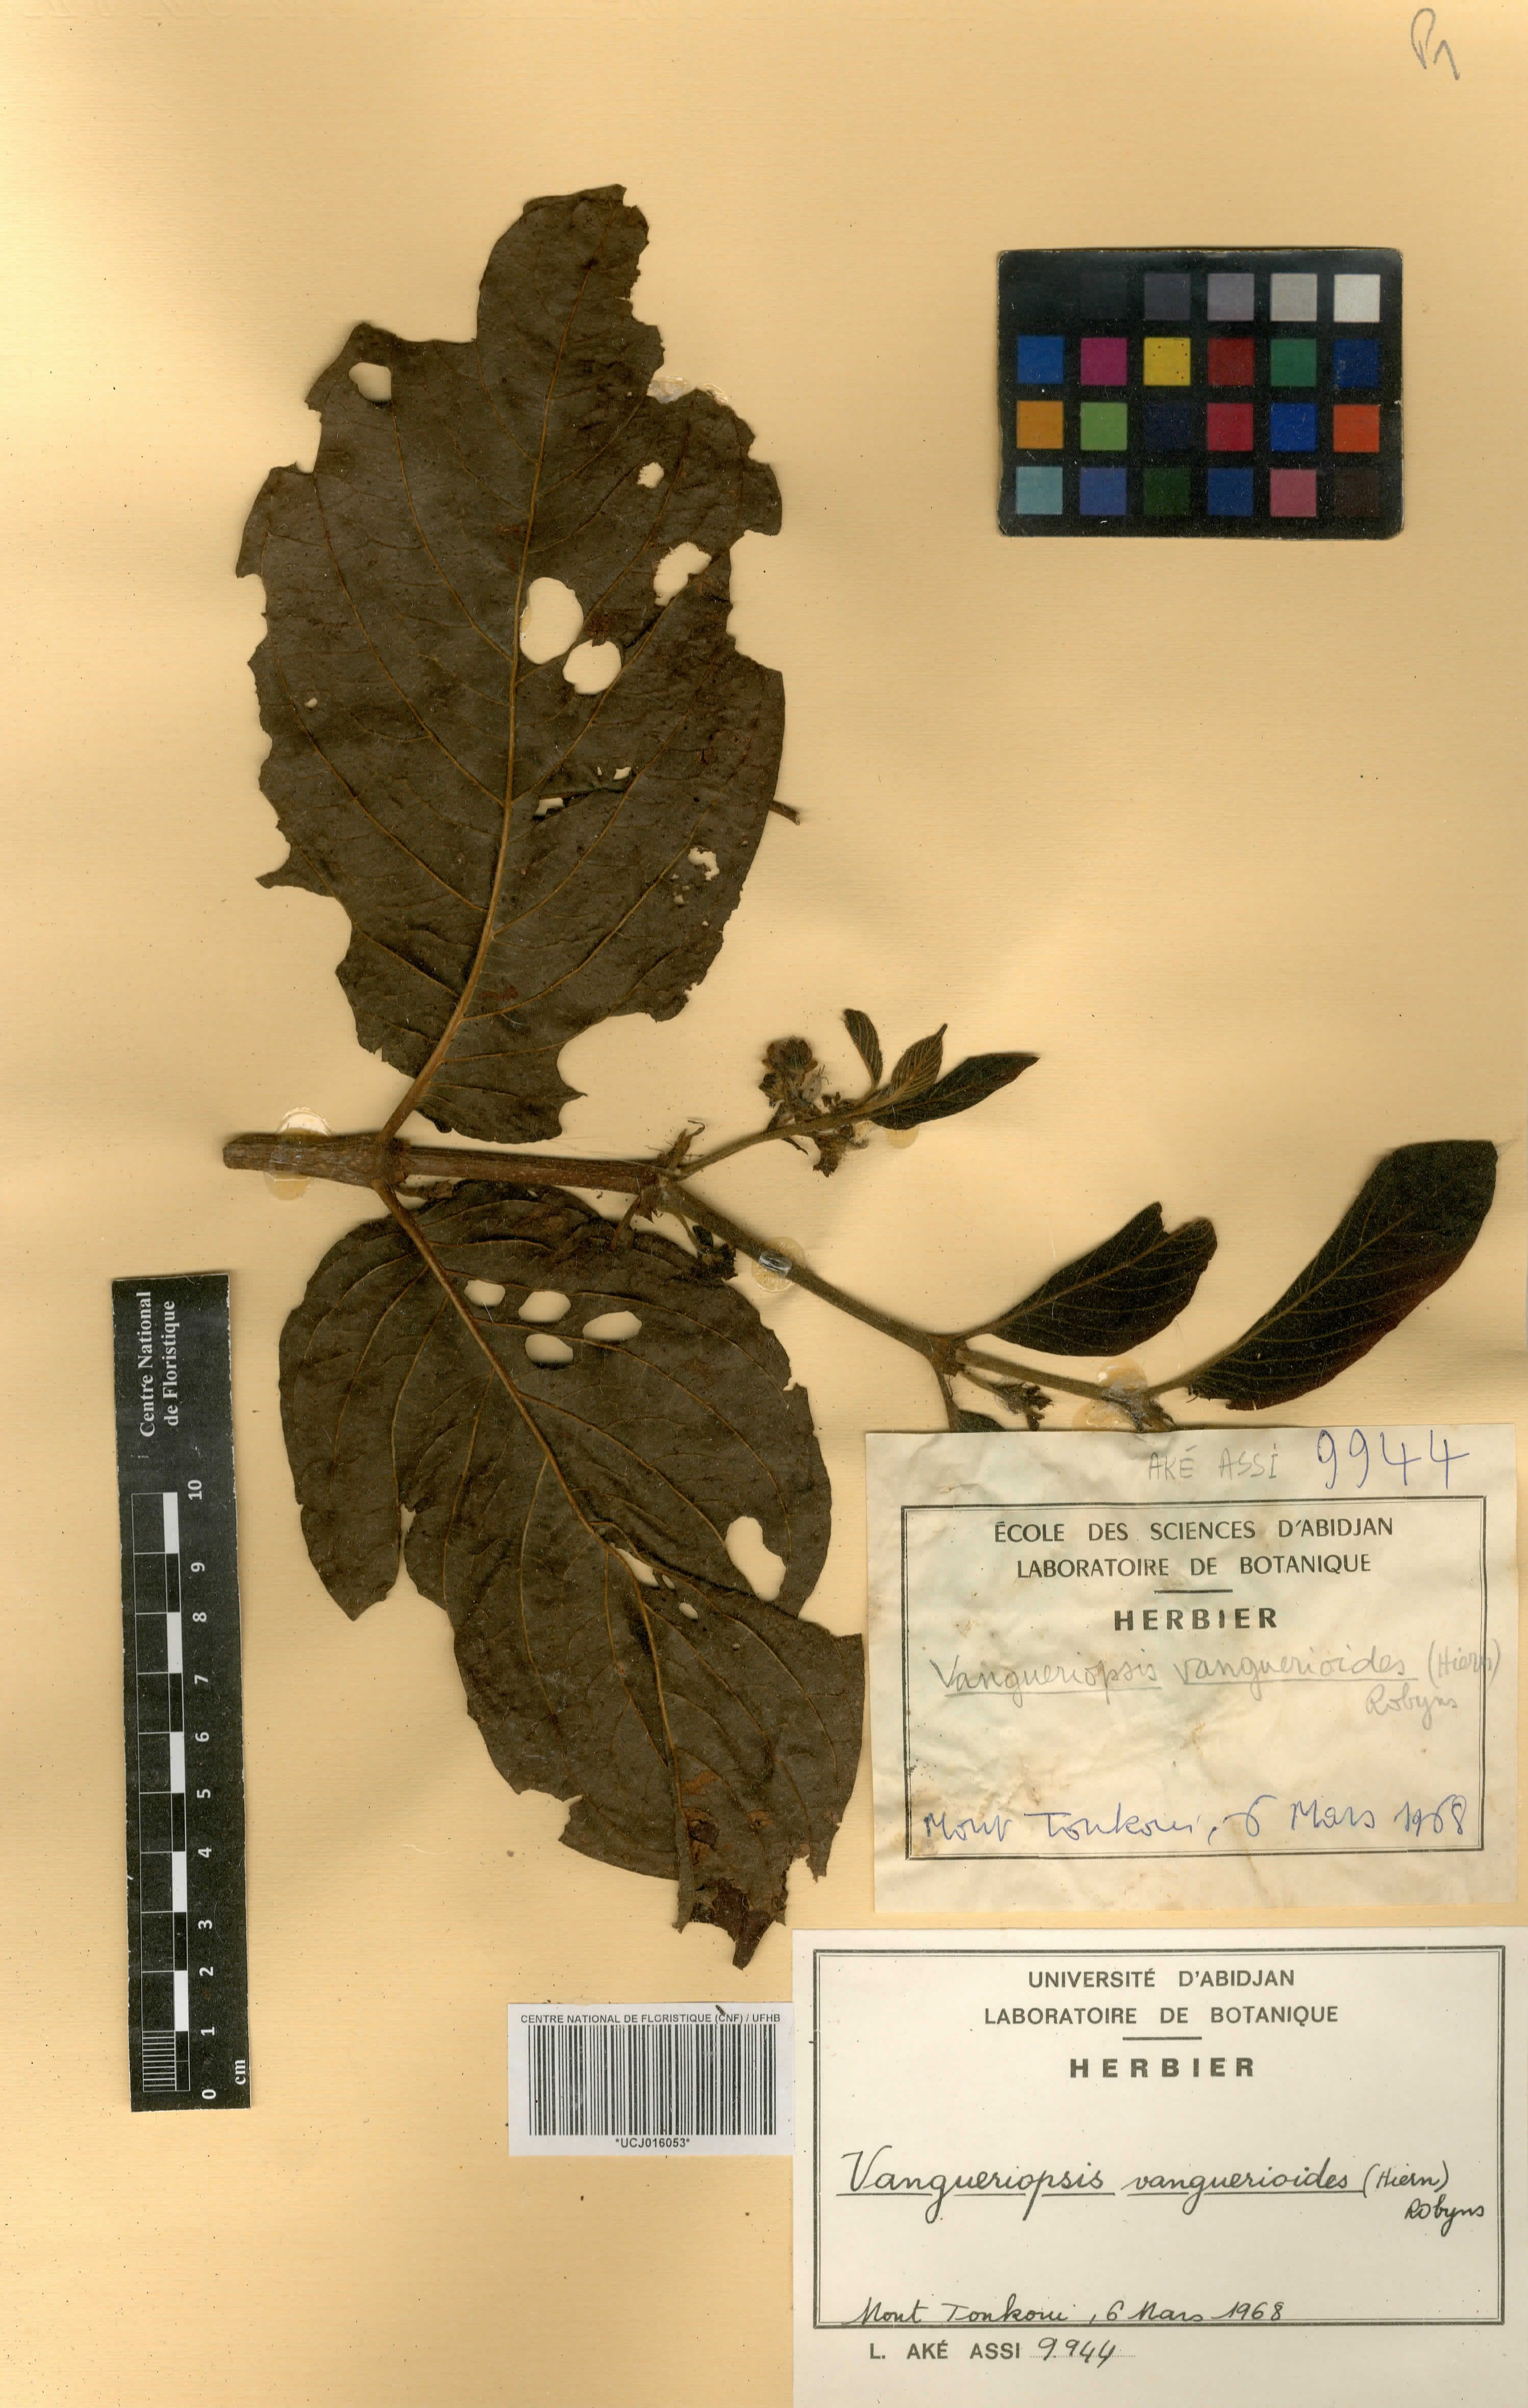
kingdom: Plantae
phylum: Tracheophyta
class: Magnoliopsida
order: Gentianales
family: Rubiaceae
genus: Vangueriella
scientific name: Vangueriella vanguerioides
